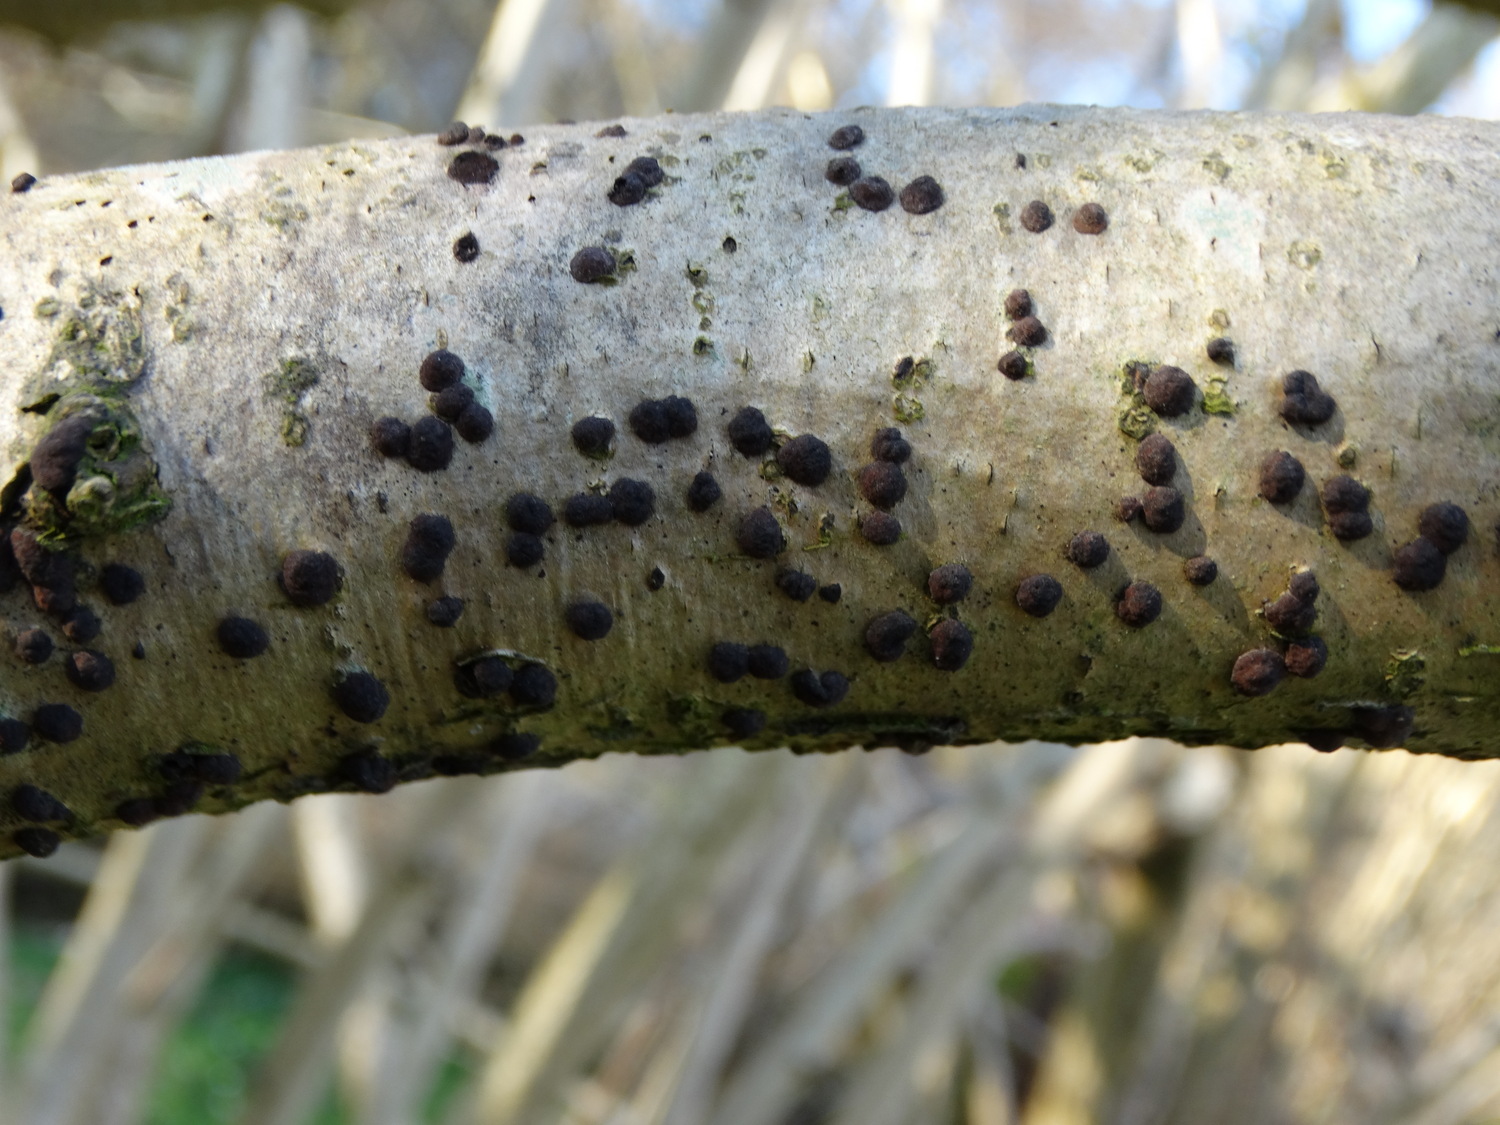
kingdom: Fungi
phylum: Ascomycota
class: Sordariomycetes
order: Xylariales
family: Hypoxylaceae
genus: Hypoxylon
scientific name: Hypoxylon fuscum
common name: kegleformet kulbær
